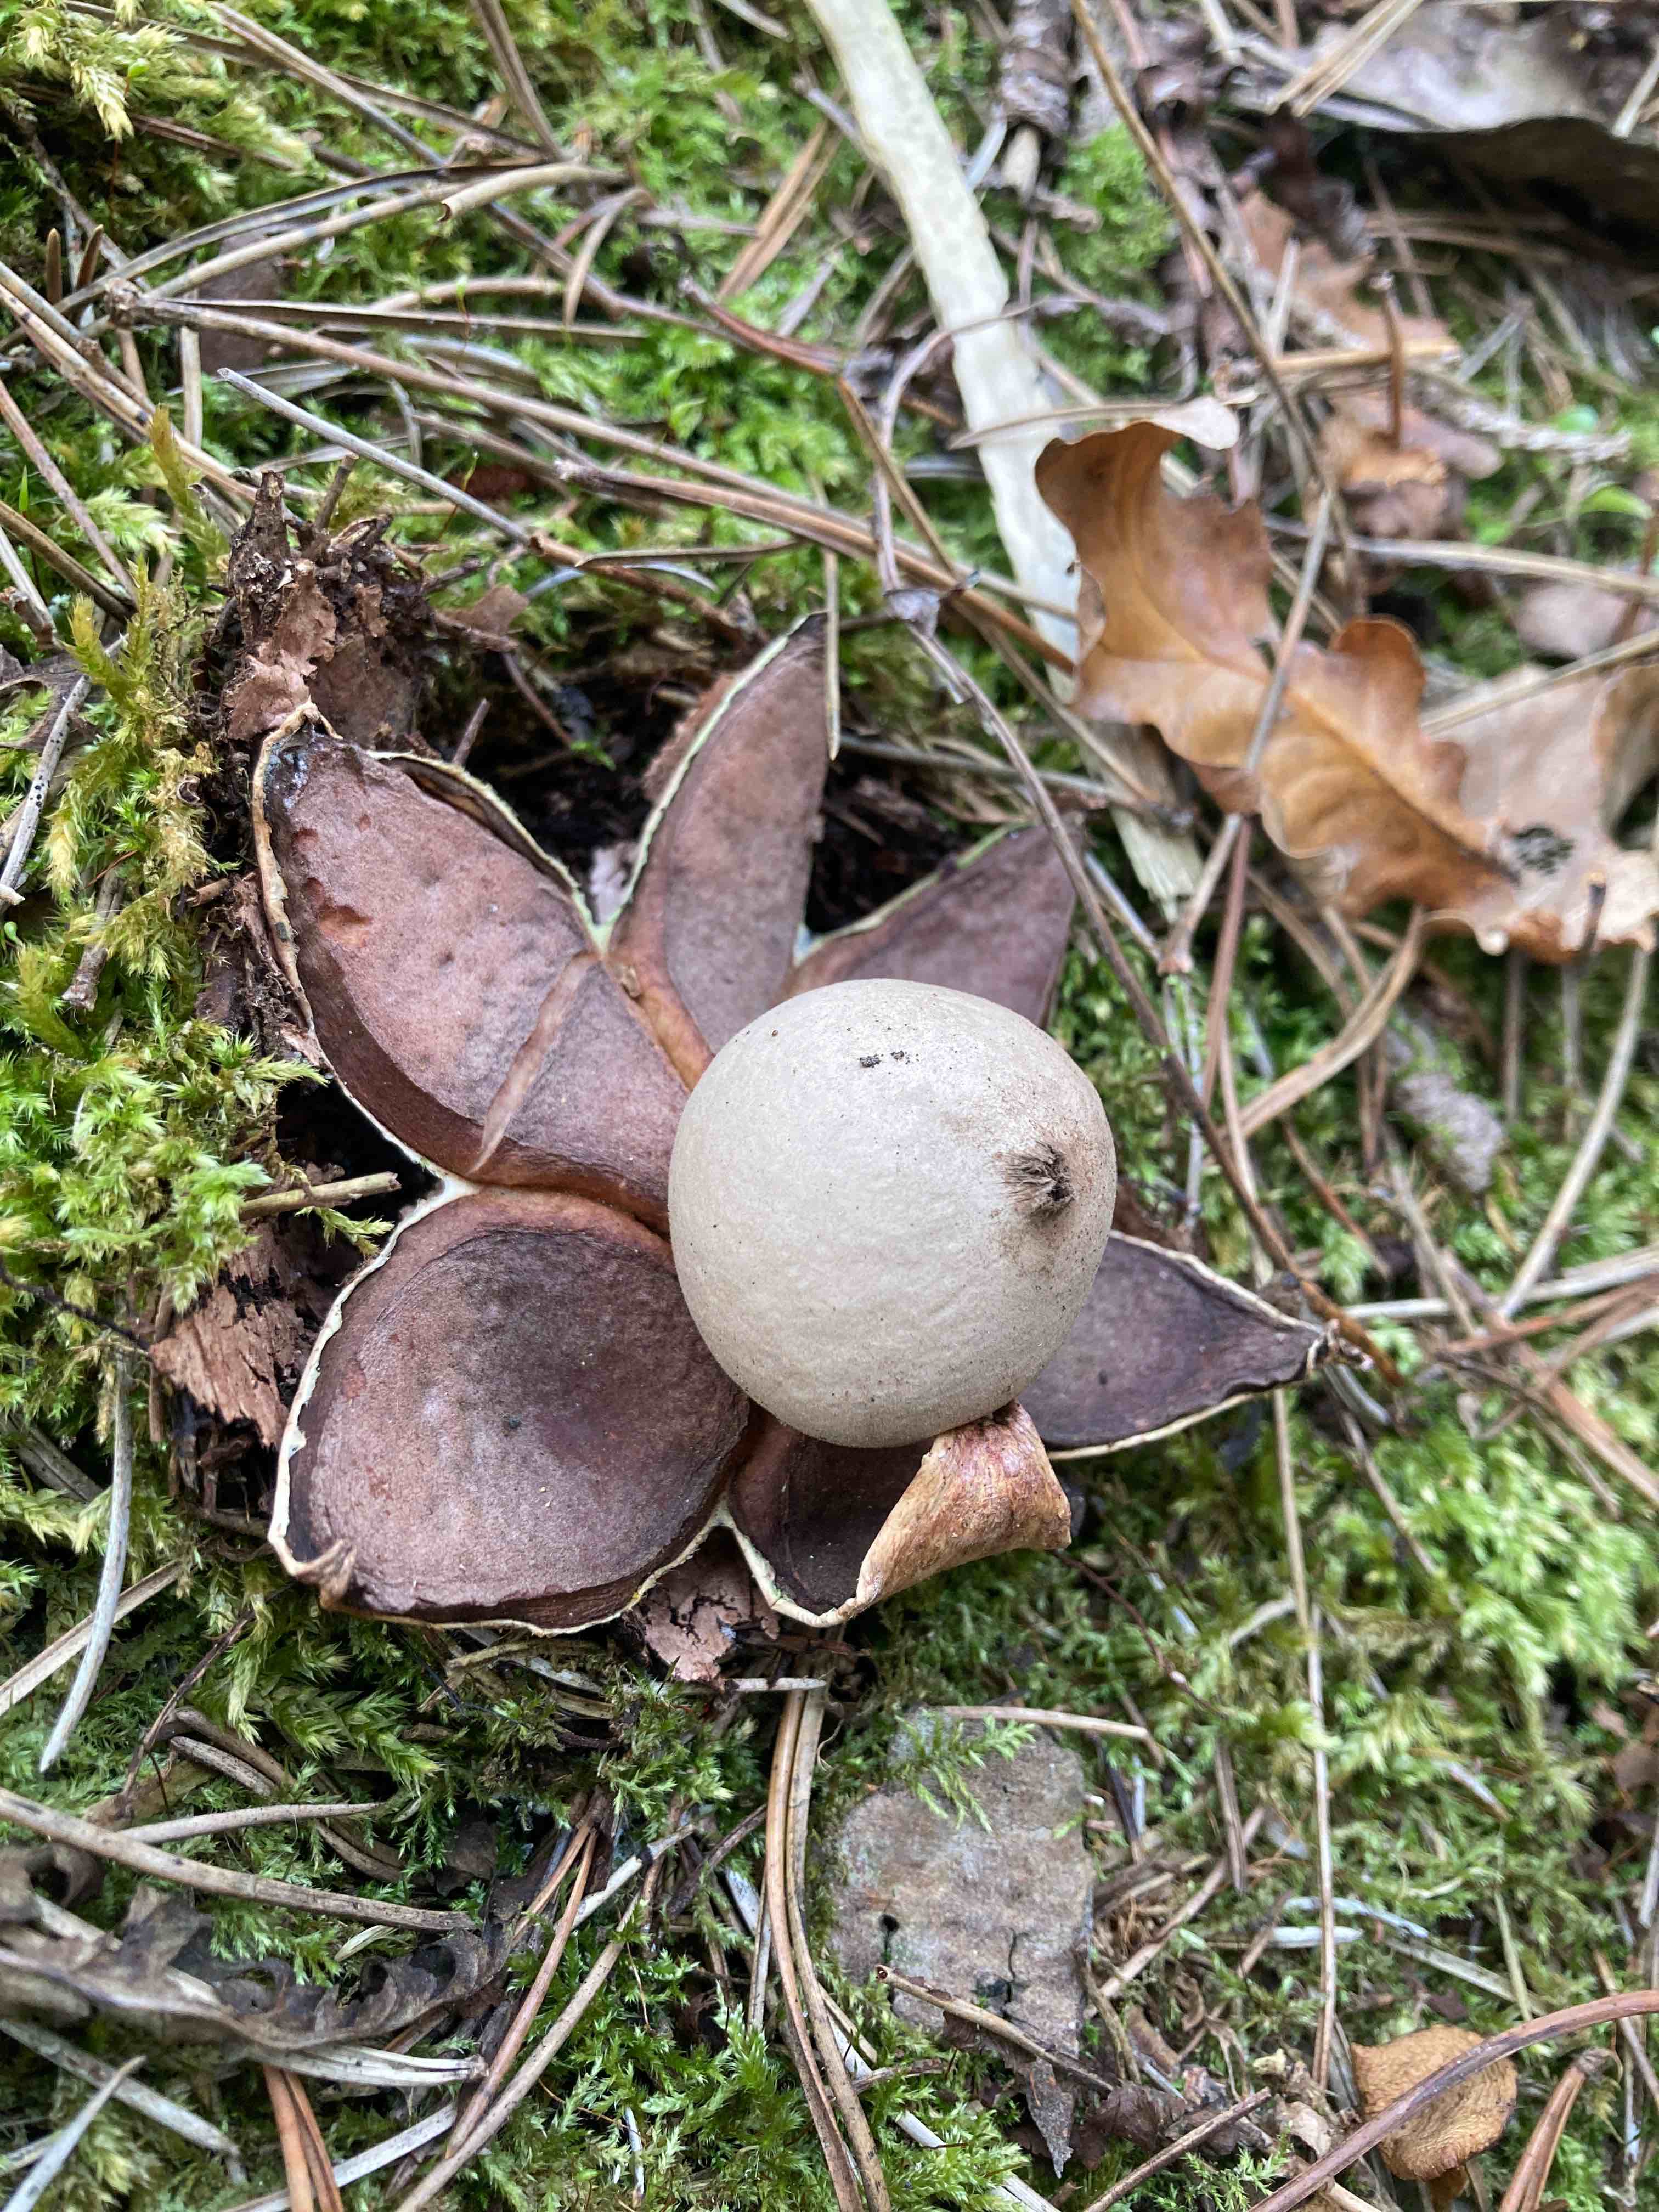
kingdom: Fungi
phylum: Basidiomycota
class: Agaricomycetes
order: Geastrales
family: Geastraceae
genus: Geastrum
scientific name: Geastrum rufescens
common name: kødfarvet stjernebold
